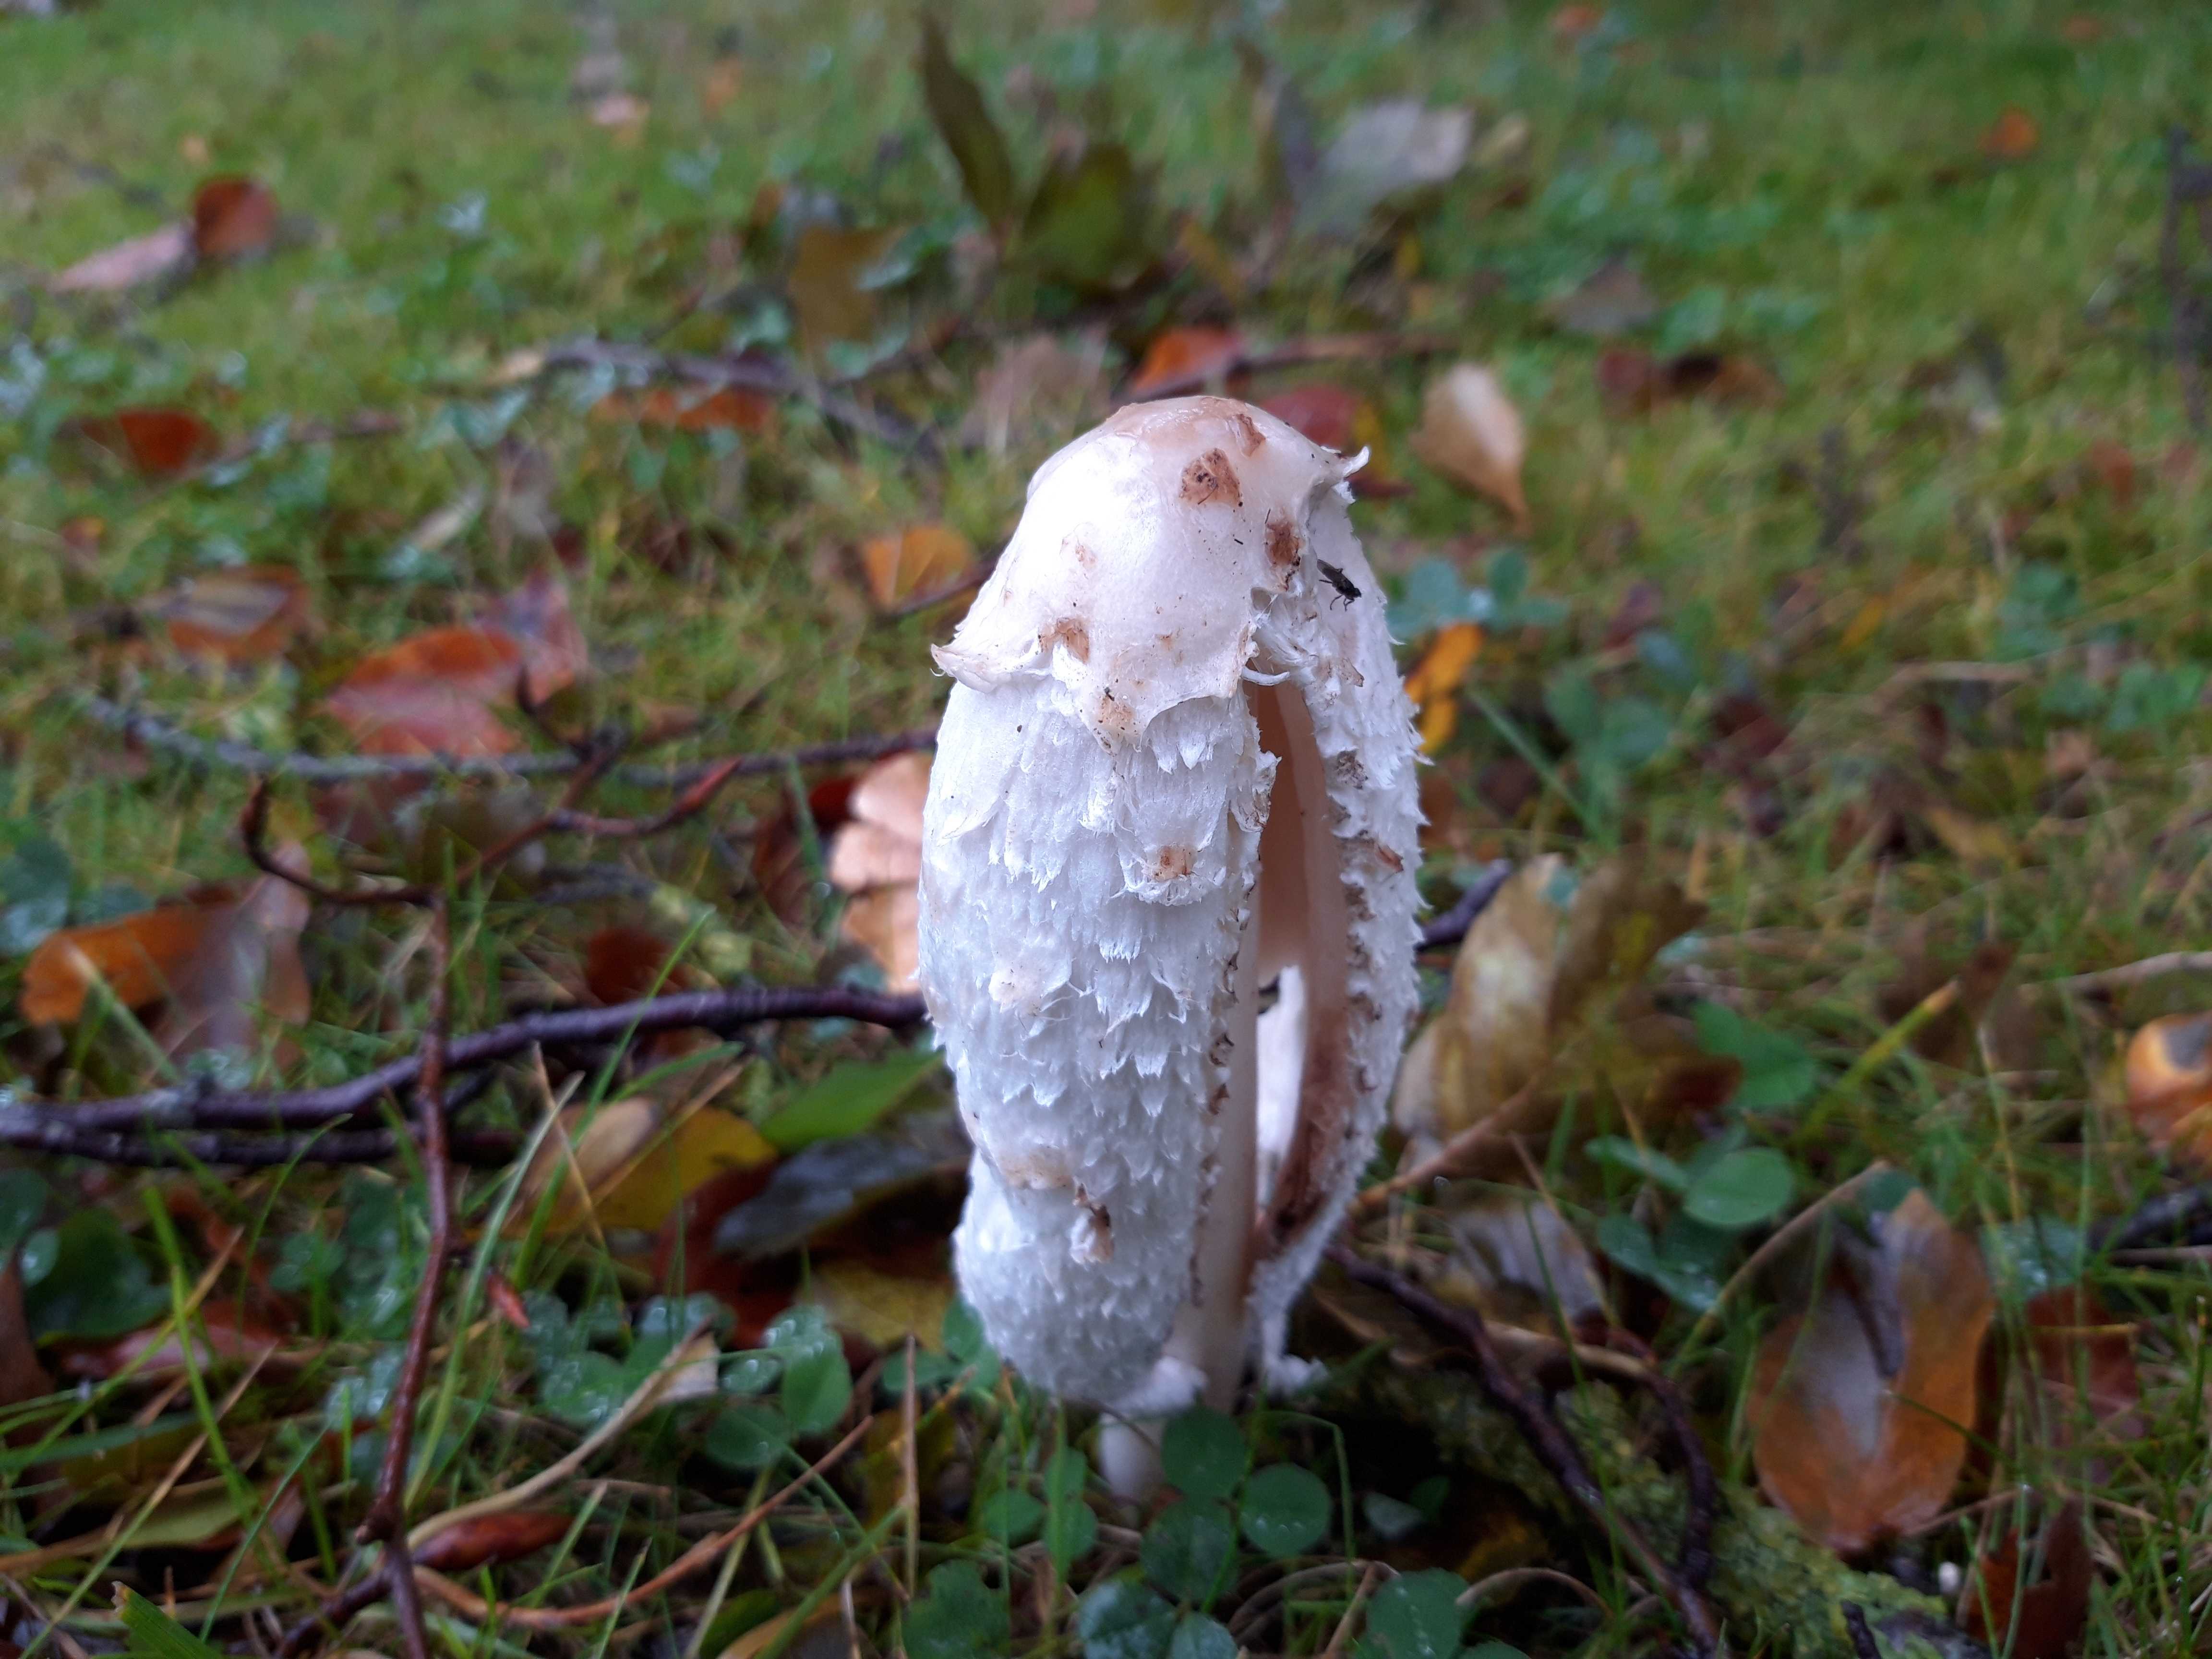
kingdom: Fungi
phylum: Basidiomycota
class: Agaricomycetes
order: Agaricales
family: Agaricaceae
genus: Coprinus
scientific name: Coprinus comatus
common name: stor parykhat
